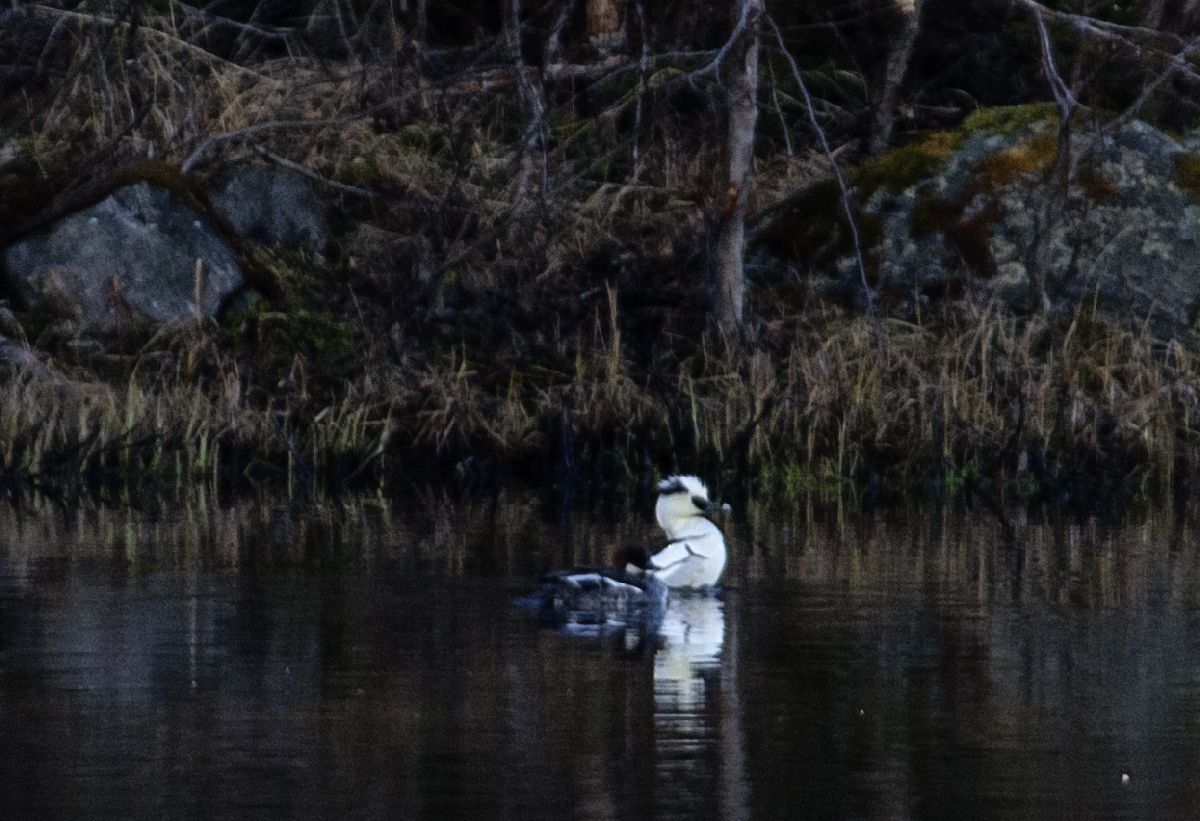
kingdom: Animalia
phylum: Chordata
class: Aves
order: Anseriformes
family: Anatidae
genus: Mergellus
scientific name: Mergellus albellus
